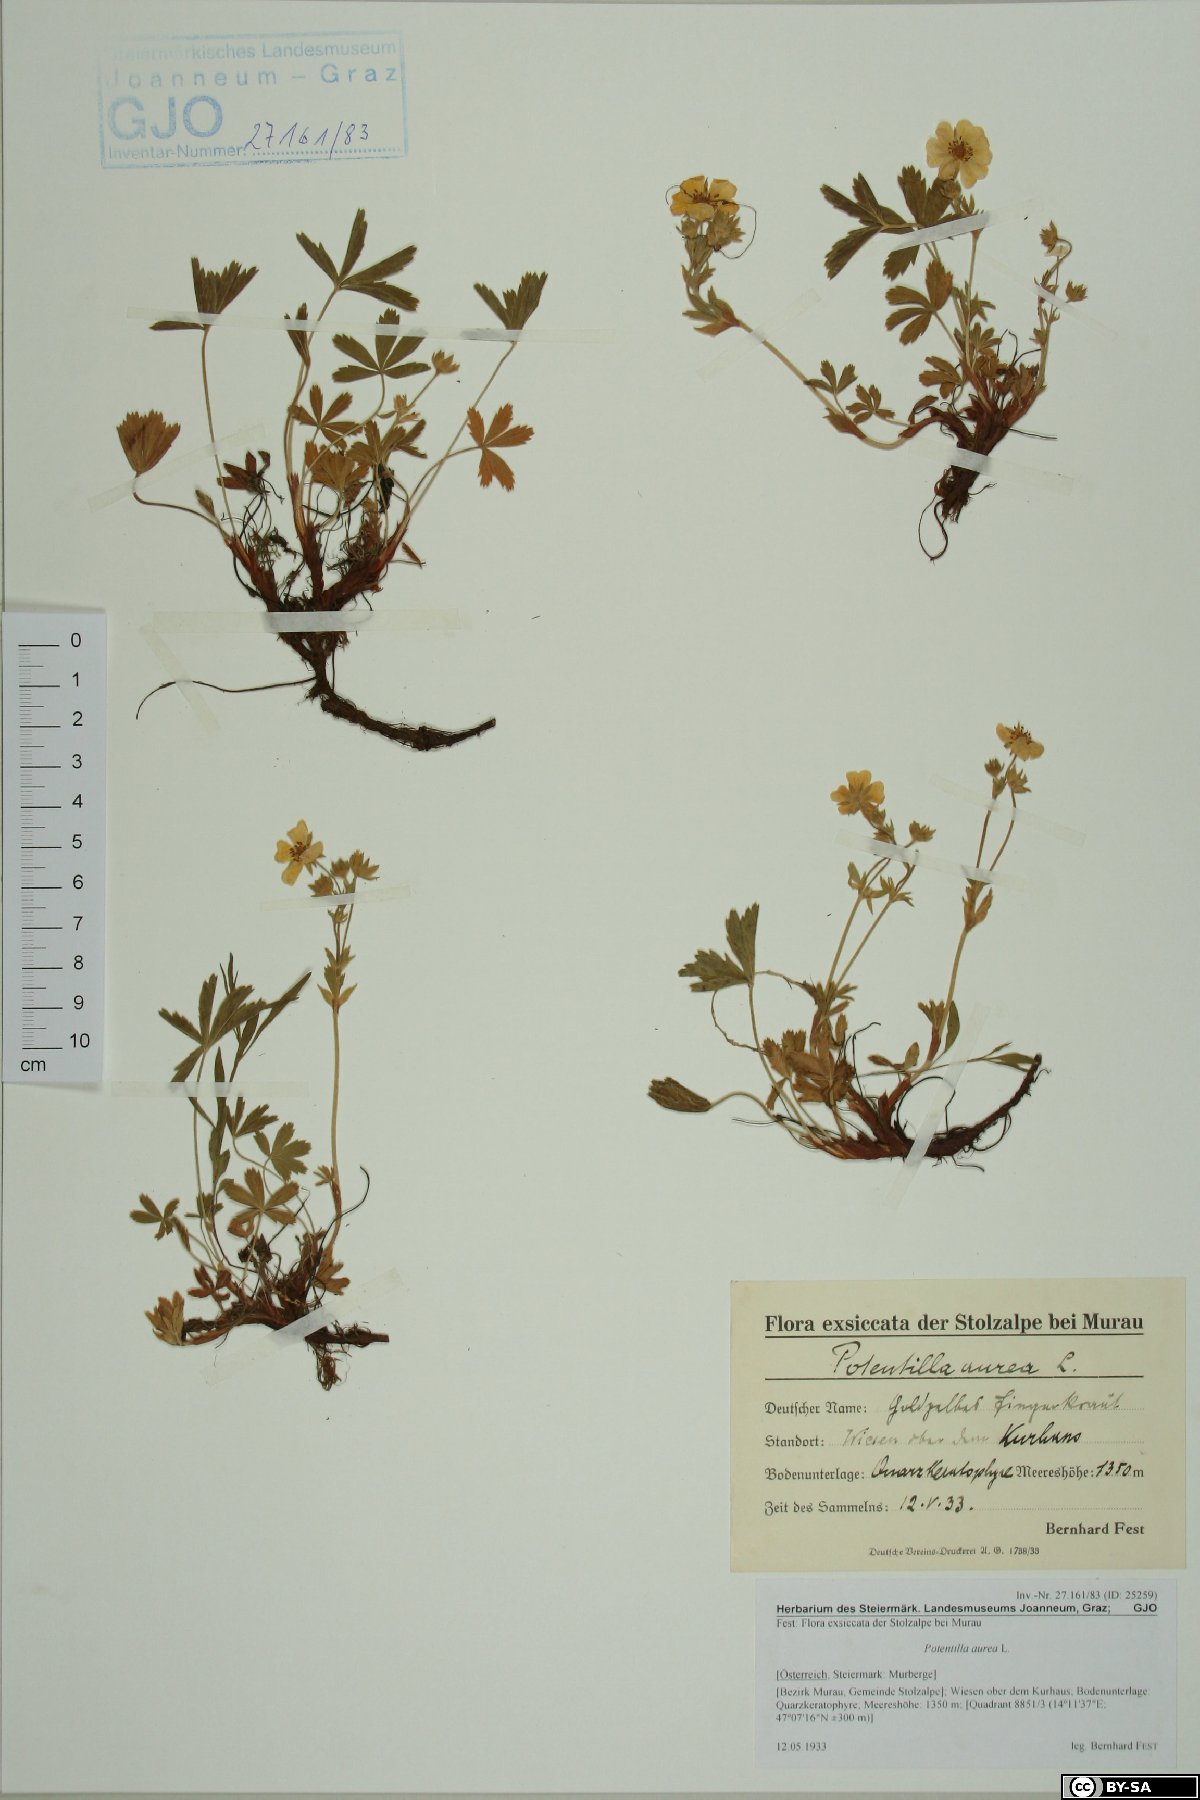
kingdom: Plantae
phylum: Tracheophyta
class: Magnoliopsida
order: Rosales
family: Rosaceae
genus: Potentilla
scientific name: Potentilla aurea
